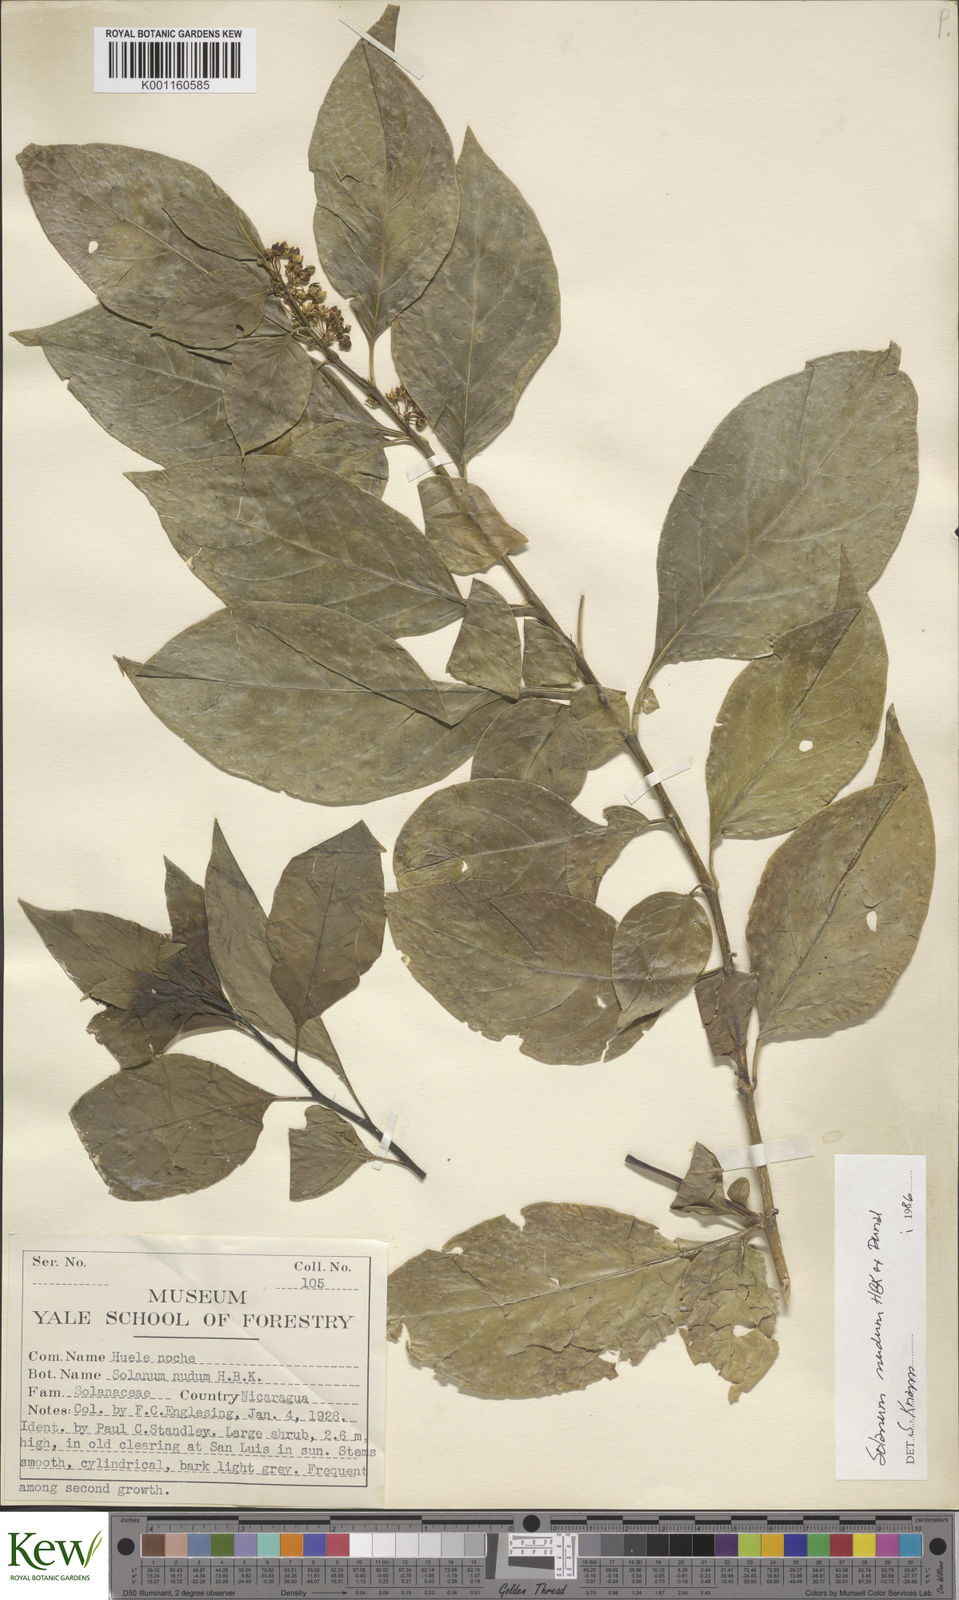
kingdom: Plantae
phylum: Tracheophyta
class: Magnoliopsida
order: Solanales
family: Solanaceae
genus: Solanum
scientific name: Solanum nudum
